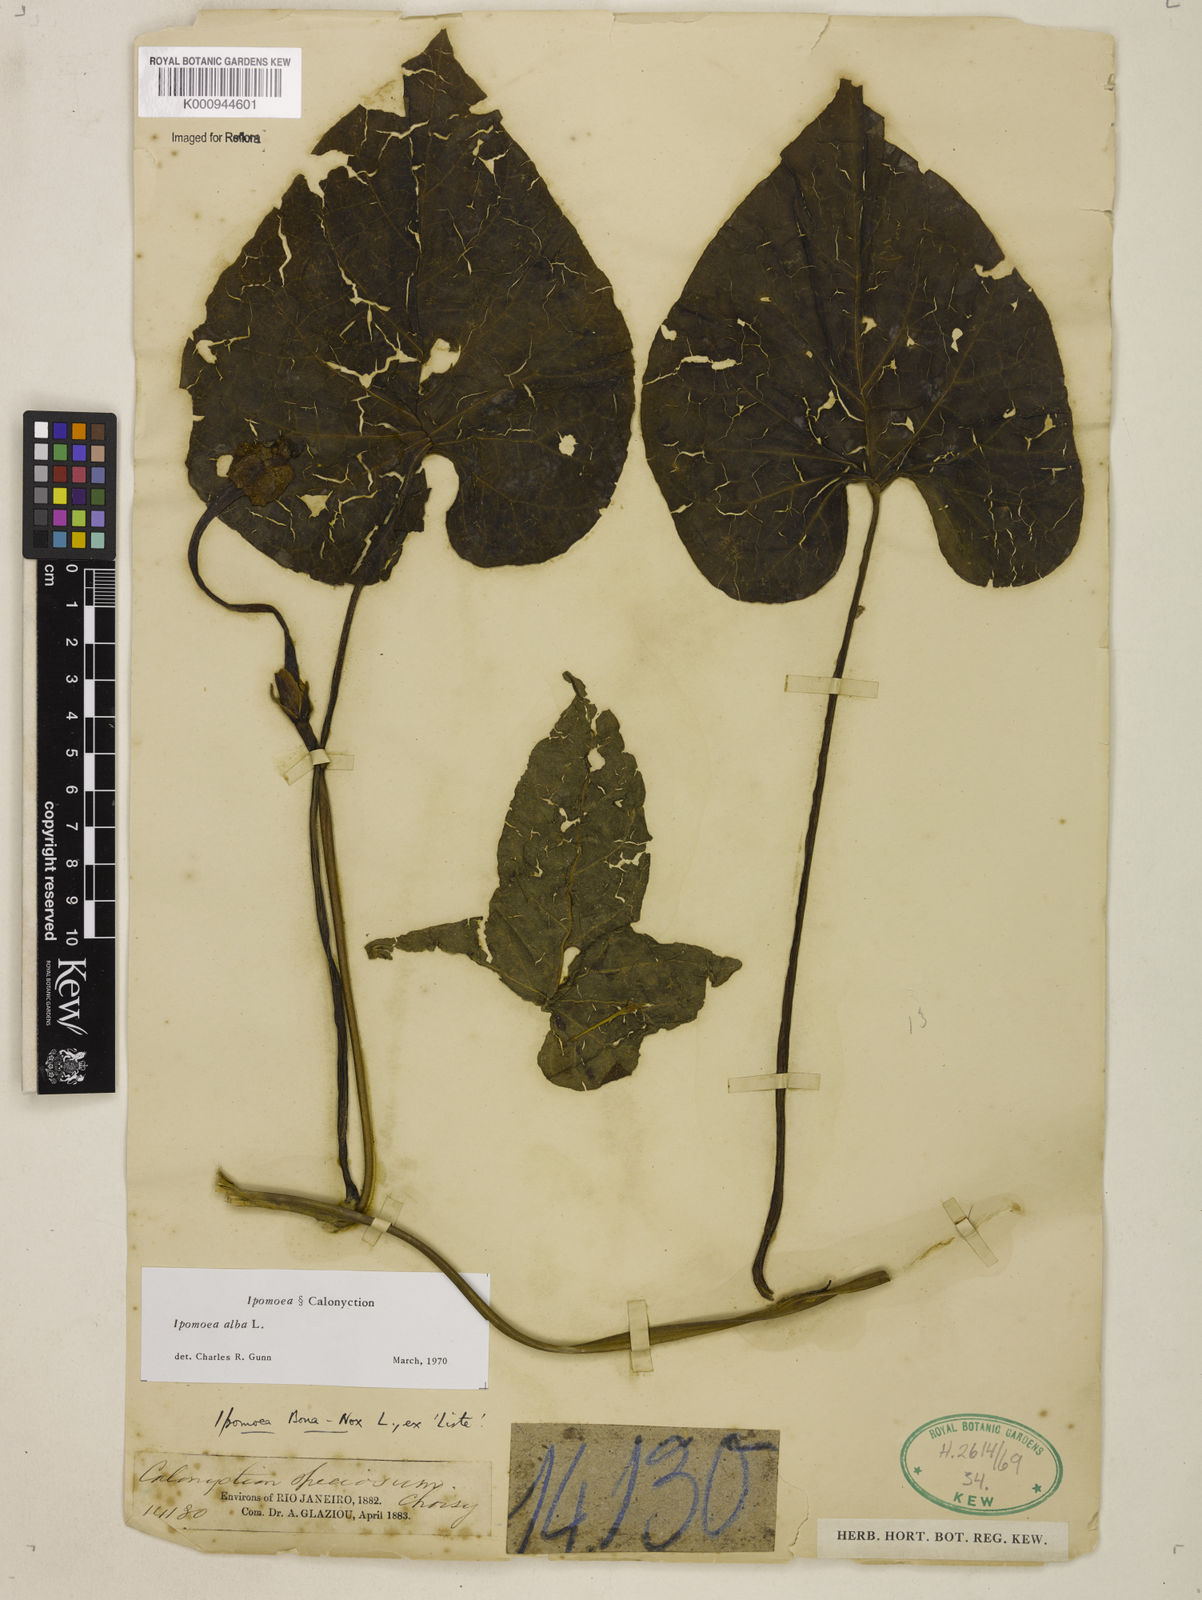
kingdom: Plantae
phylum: Tracheophyta
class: Magnoliopsida
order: Solanales
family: Convolvulaceae
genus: Ipomoea
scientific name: Ipomoea
